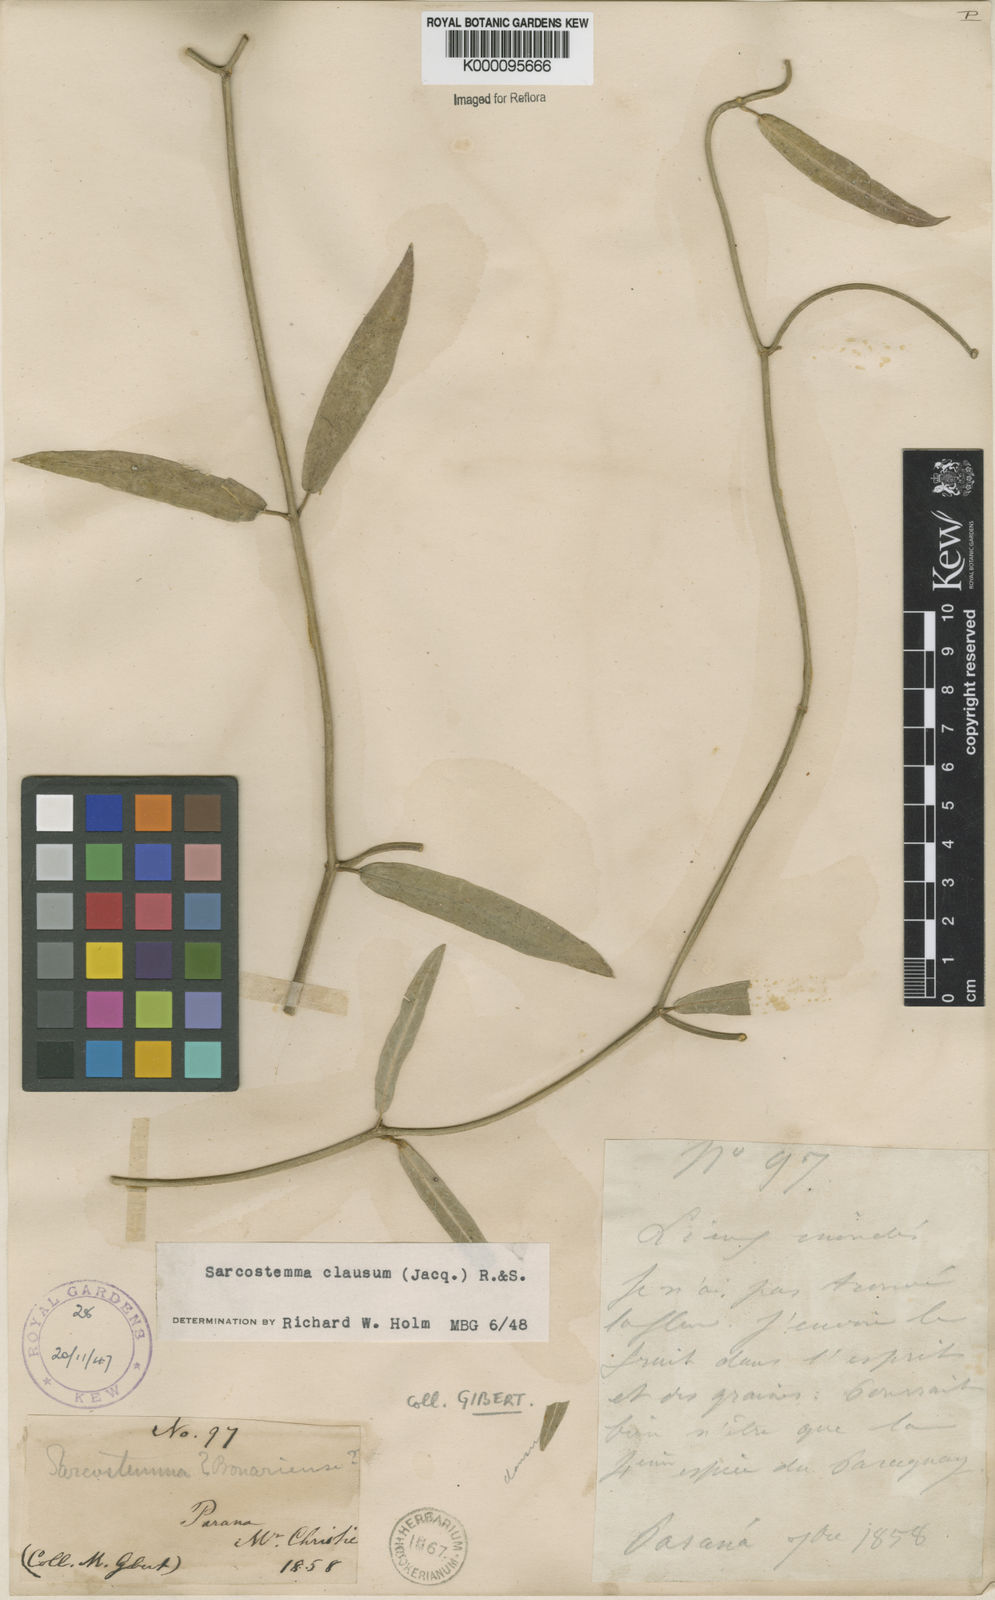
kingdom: Plantae
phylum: Tracheophyta
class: Magnoliopsida
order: Gentianales
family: Apocynaceae
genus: Funastrum
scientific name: Funastrum clausum
